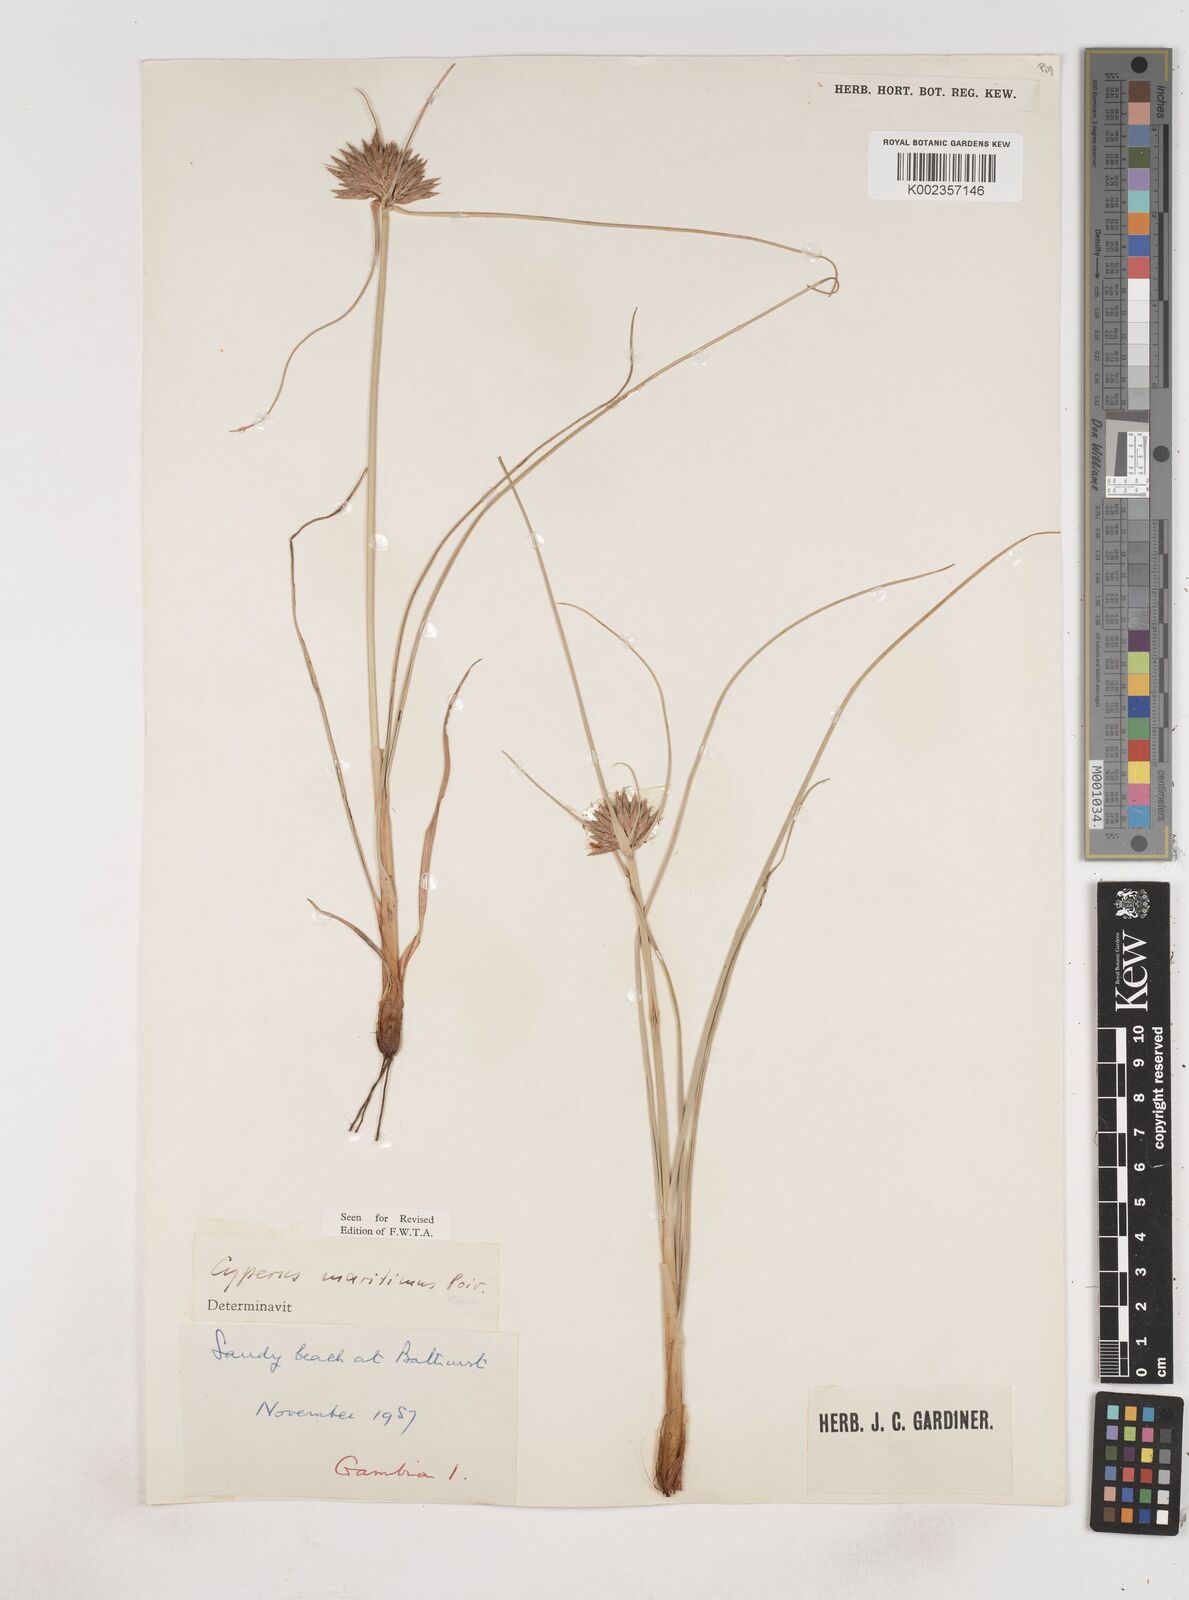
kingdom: Plantae
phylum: Tracheophyta
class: Liliopsida
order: Poales
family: Cyperaceae
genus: Cyperus
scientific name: Cyperus crassipes
